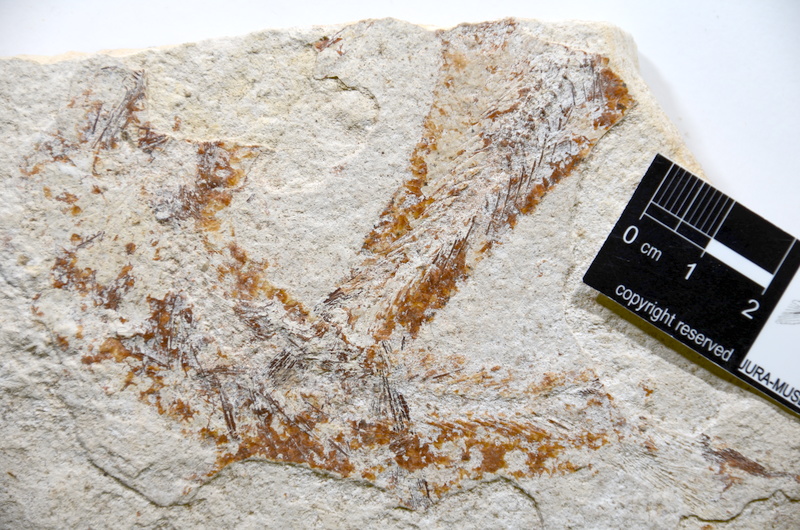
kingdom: Animalia
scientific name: Animalia
